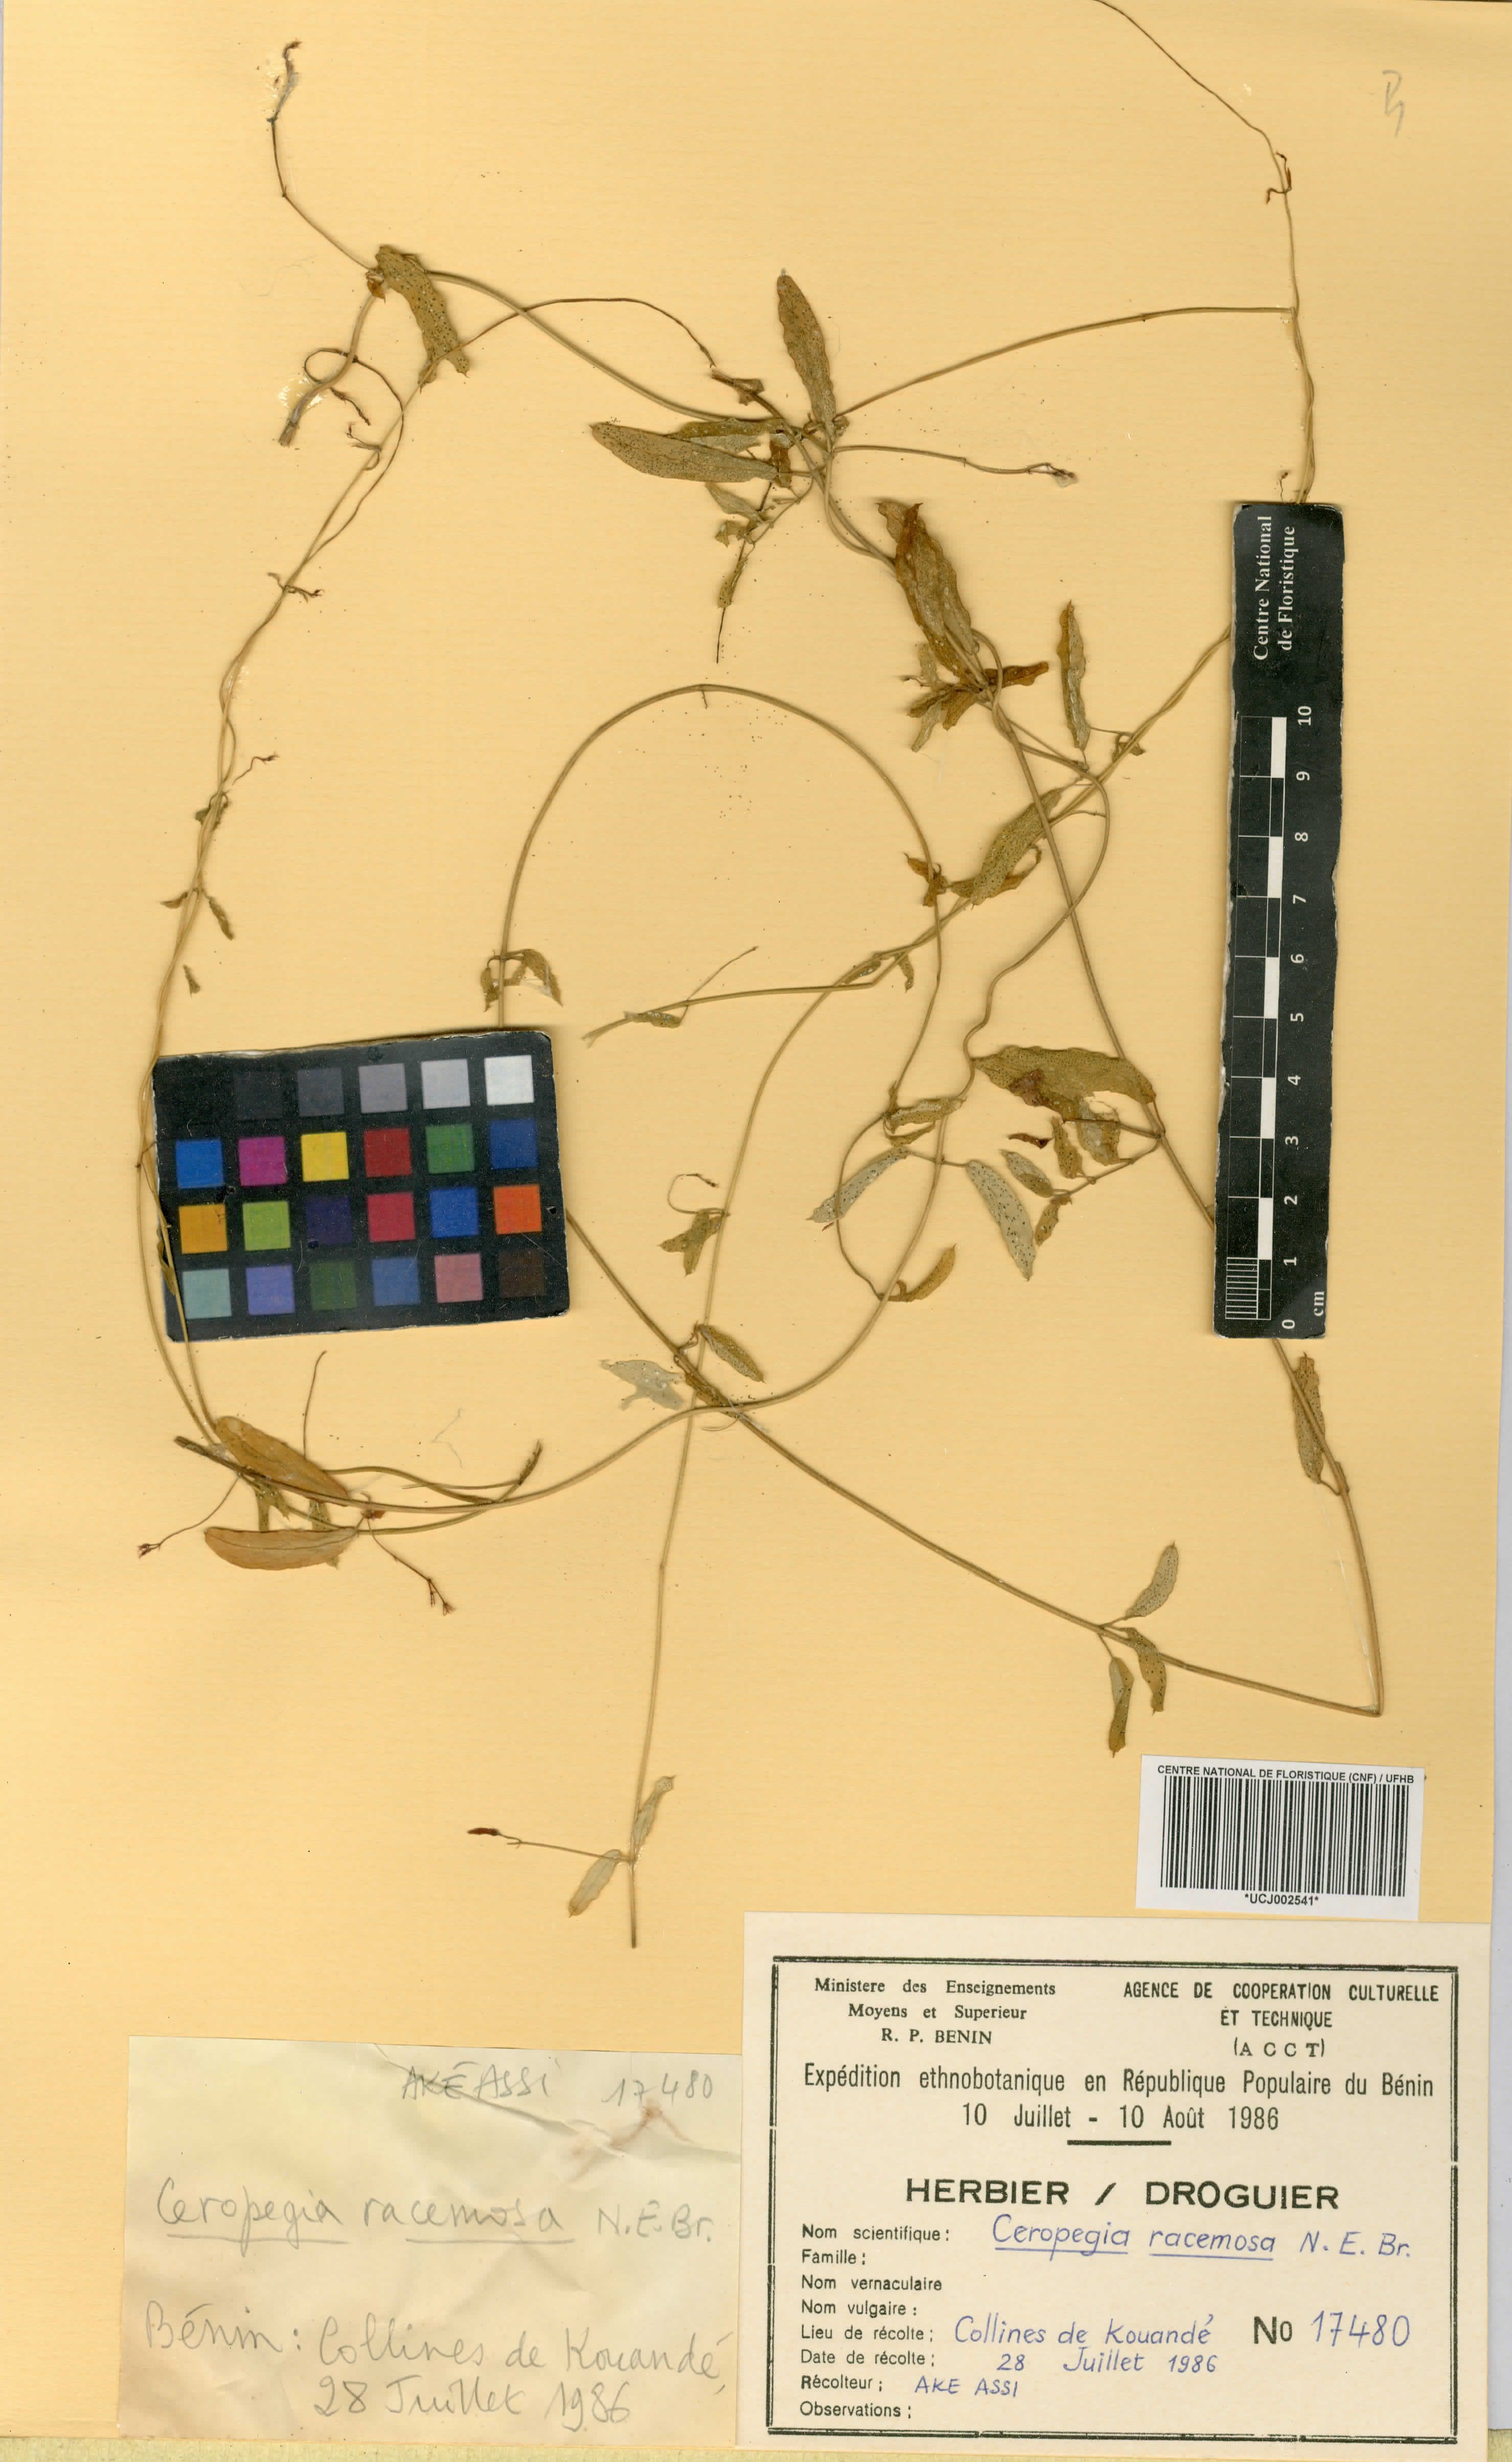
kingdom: Plantae
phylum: Tracheophyta
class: Magnoliopsida
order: Gentianales
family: Apocynaceae
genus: Ceropegia
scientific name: Ceropegia racemosa
